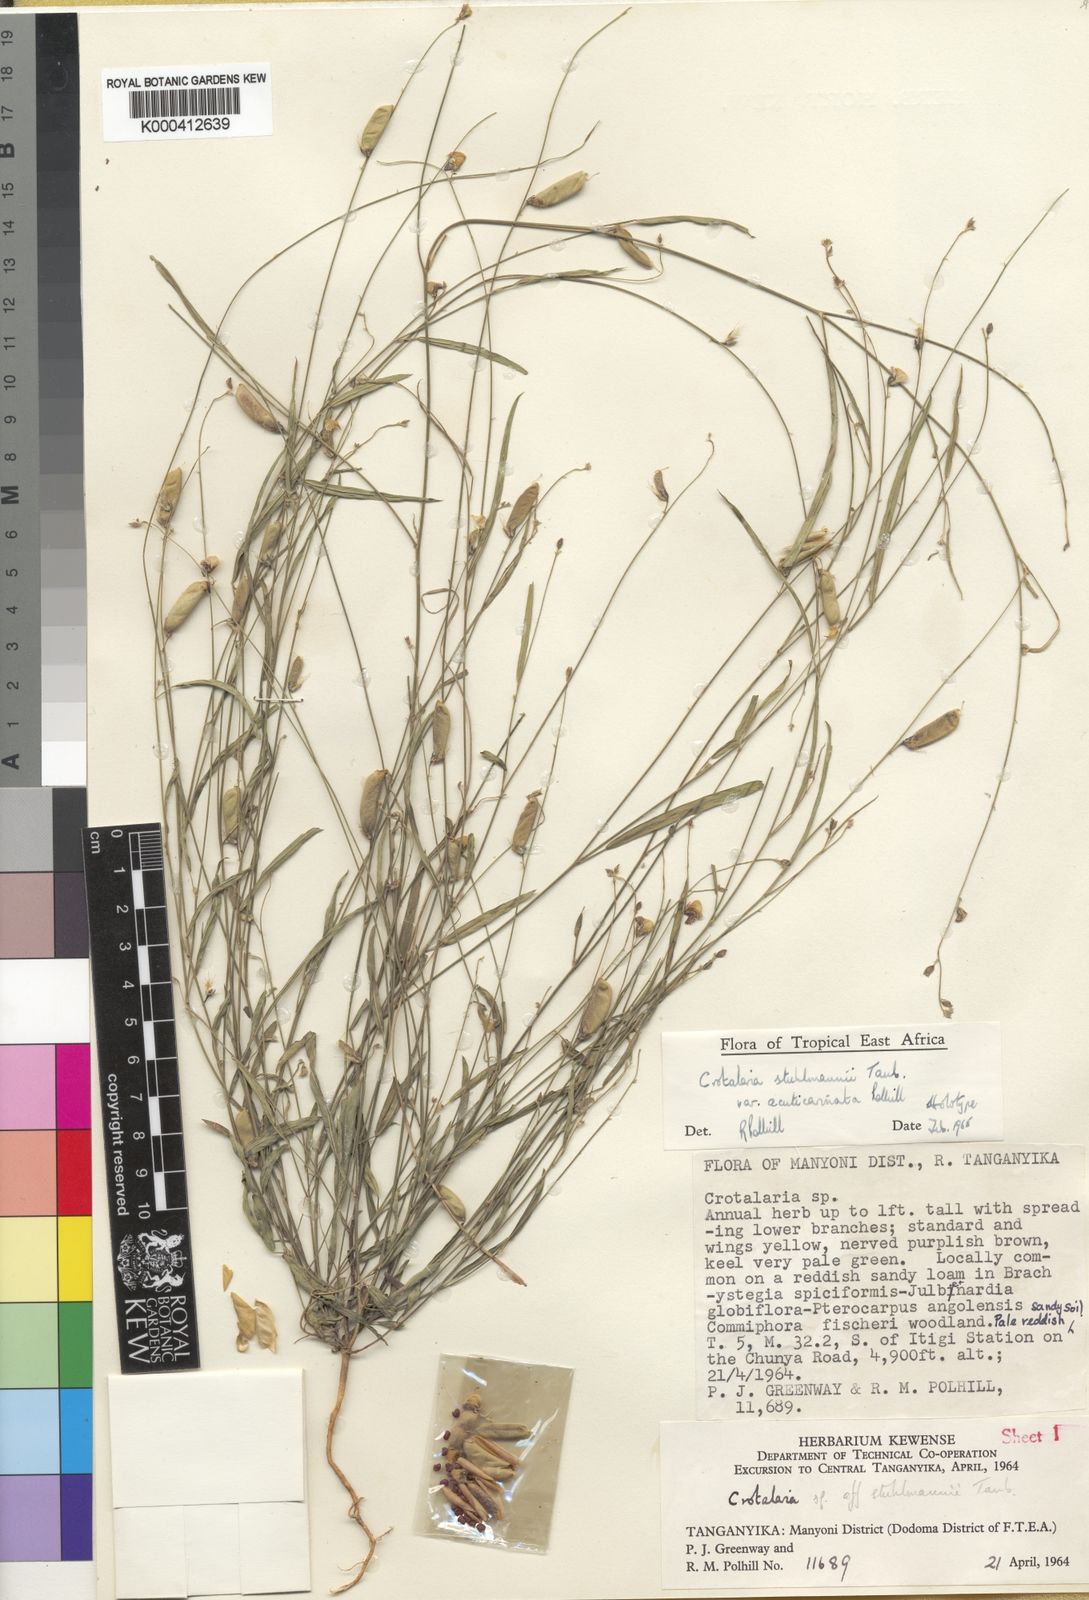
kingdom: Plantae
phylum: Tracheophyta
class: Magnoliopsida
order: Fabales
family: Fabaceae
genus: Crotalaria
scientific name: Crotalaria stuhlmannii
